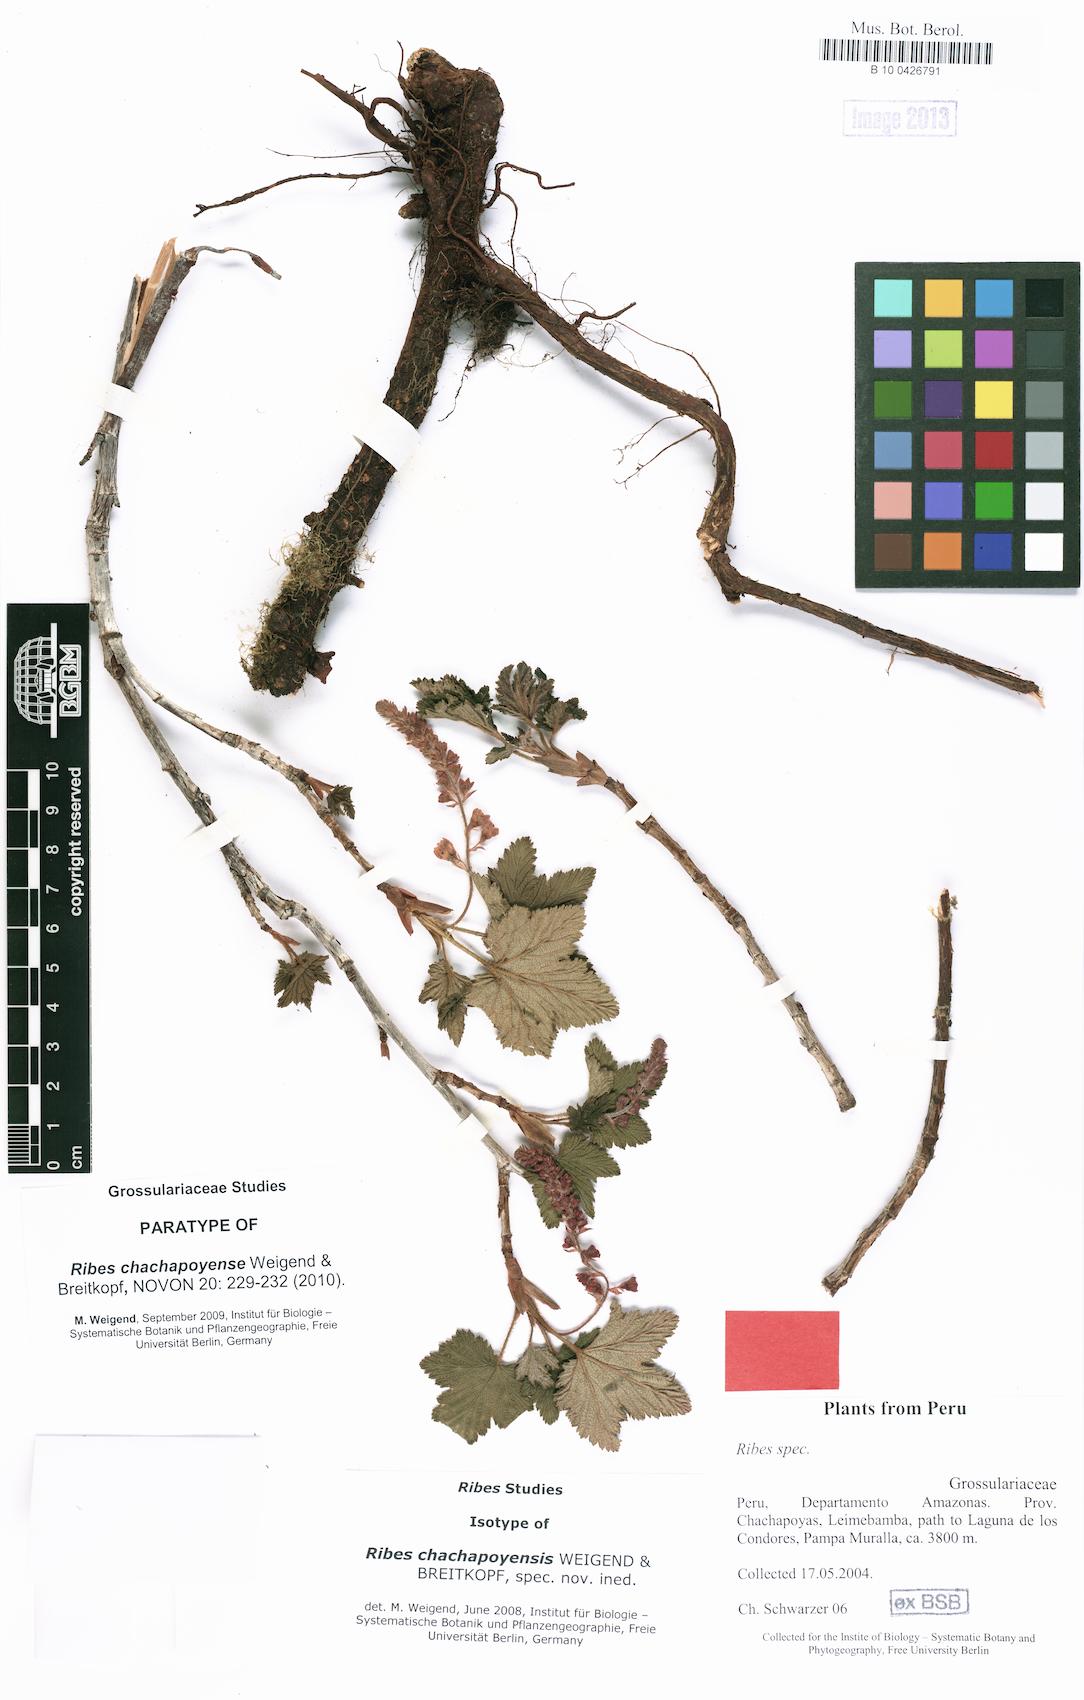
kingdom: Plantae
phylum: Tracheophyta
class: Magnoliopsida
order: Saxifragales
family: Grossulariaceae
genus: Ribes
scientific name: Ribes chachapoyense
